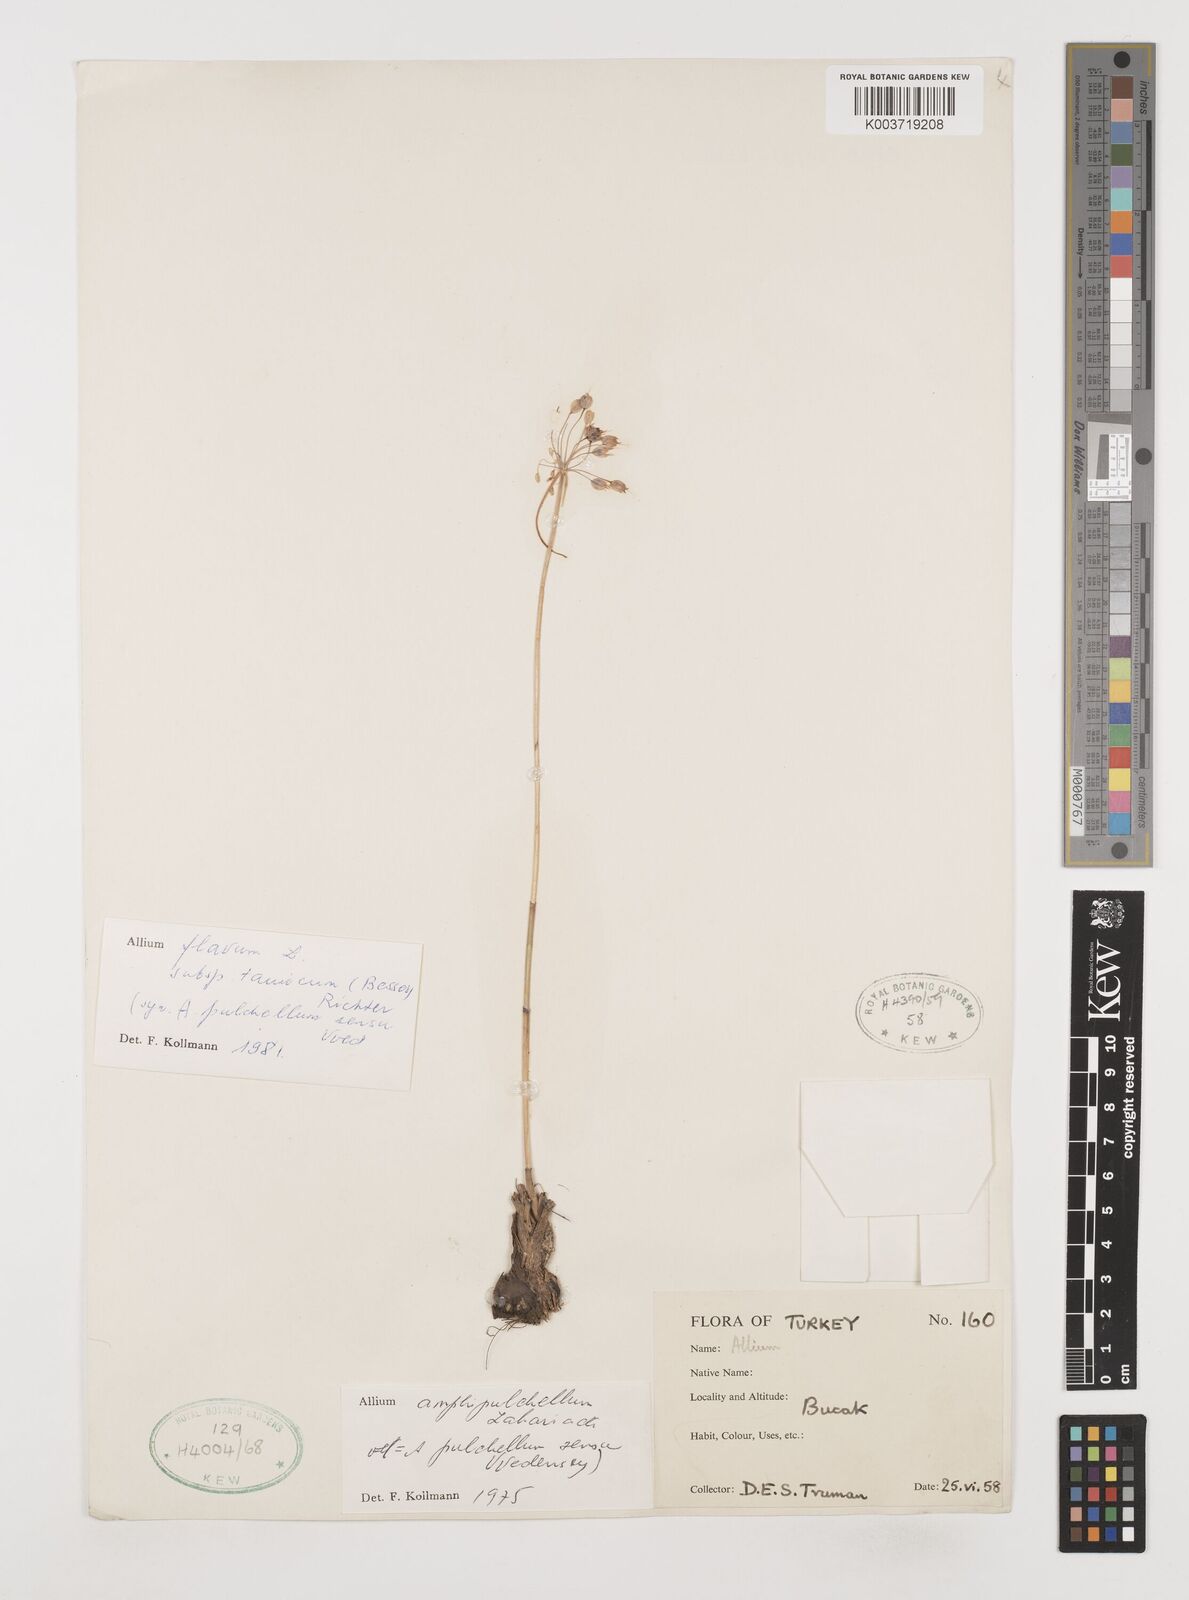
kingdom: Plantae
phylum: Tracheophyta
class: Liliopsida
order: Asparagales
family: Amaryllidaceae
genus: Allium
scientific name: Allium flavum
